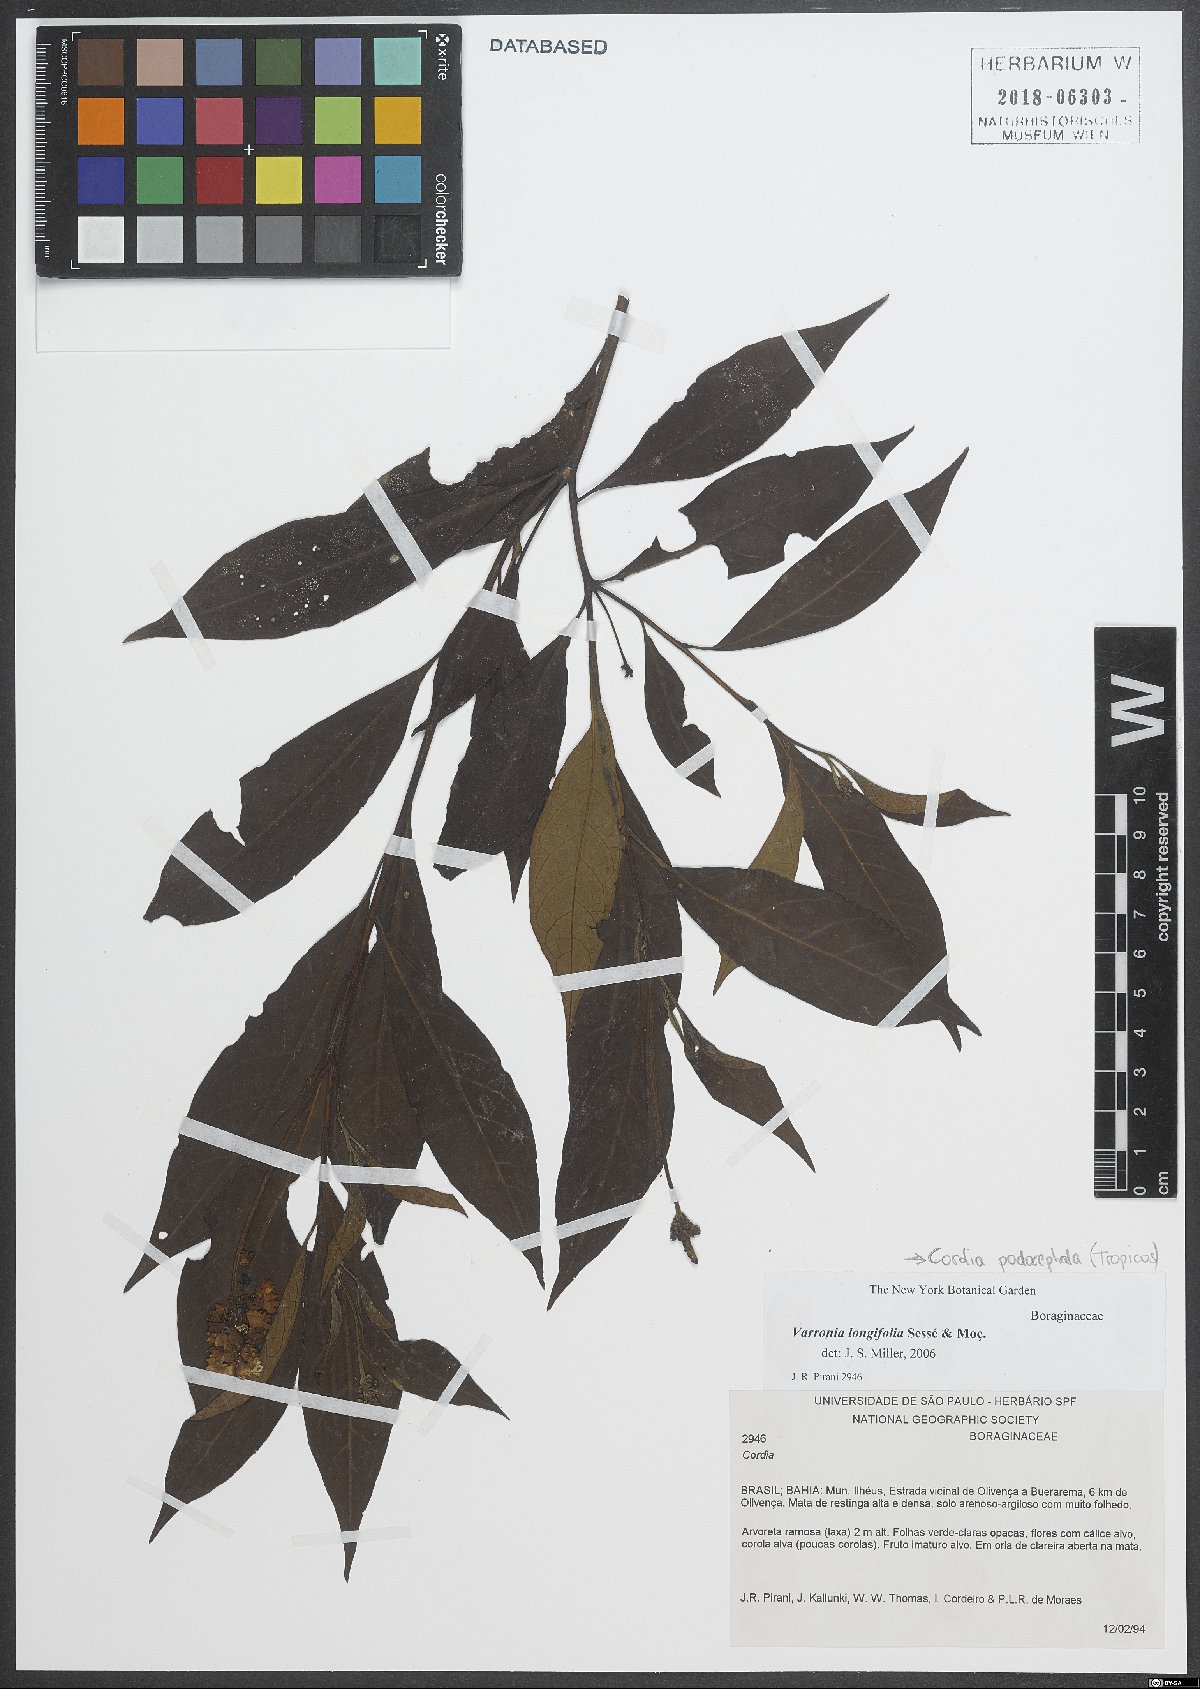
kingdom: Plantae
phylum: Tracheophyta
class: Magnoliopsida
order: Boraginales
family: Cordiaceae
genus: Varronia
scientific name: Varronia podocephala
